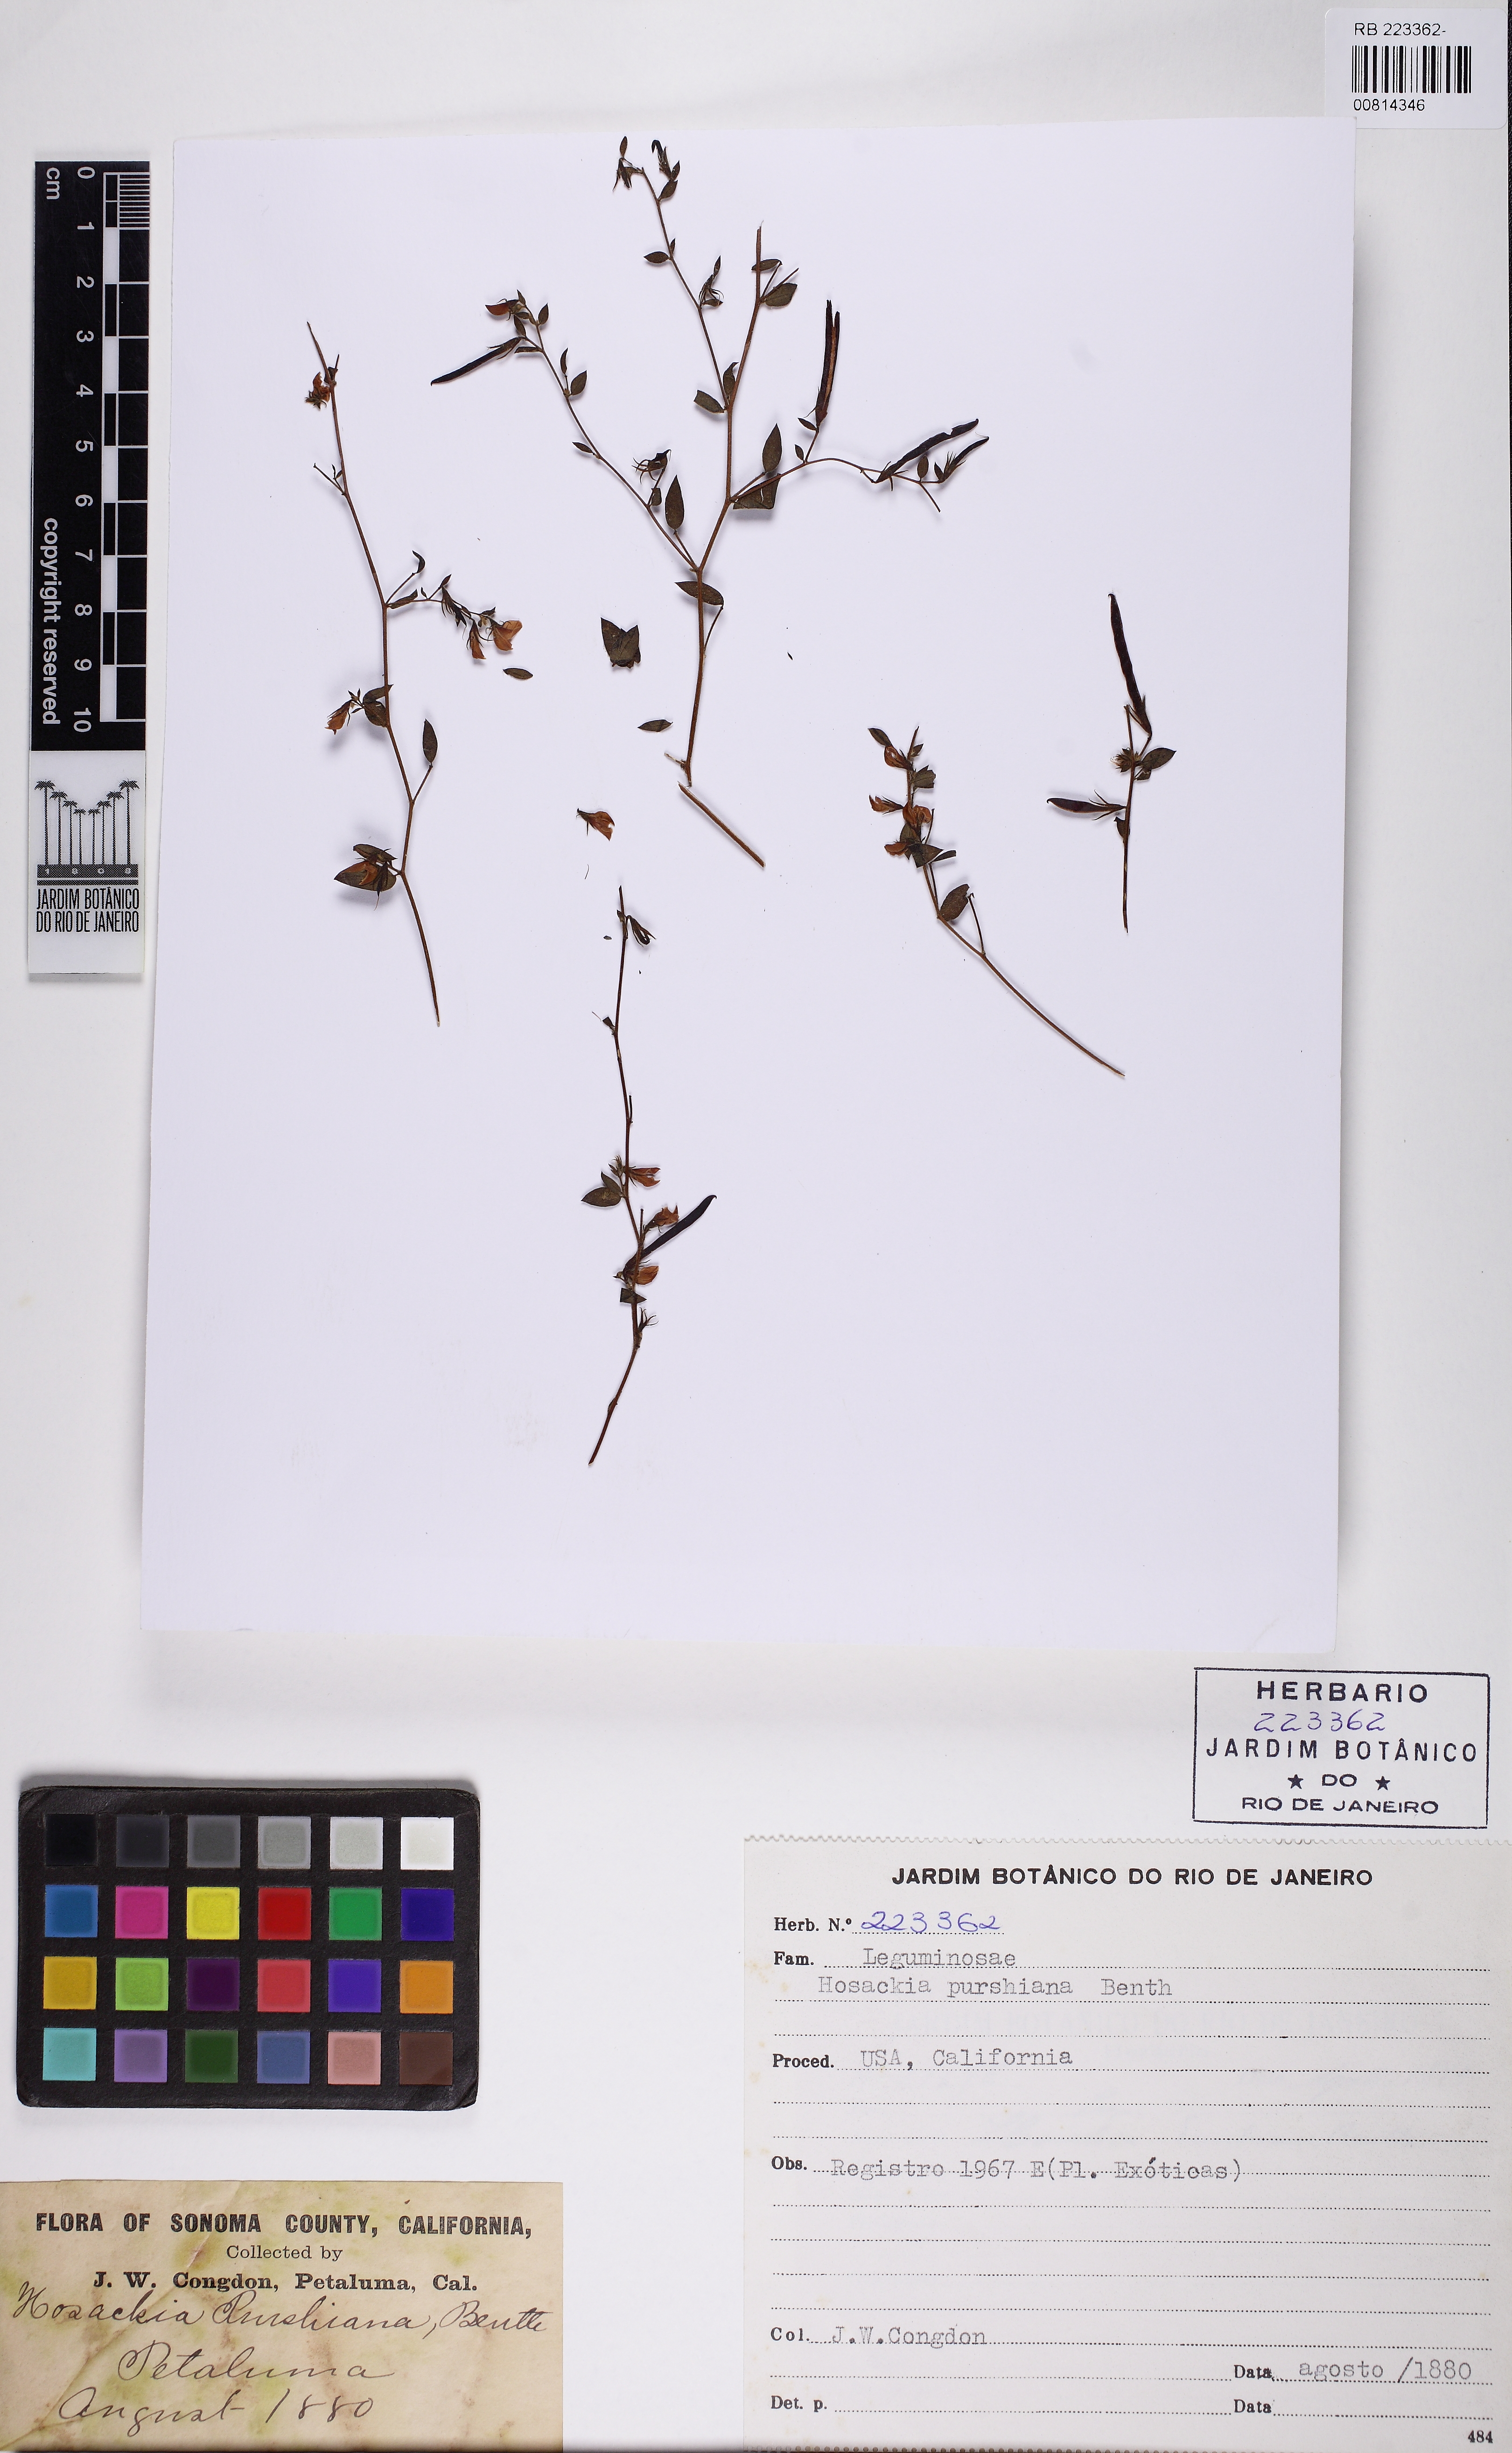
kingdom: Plantae
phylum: Tracheophyta
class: Magnoliopsida
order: Fabales
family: Fabaceae
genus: Acmispon
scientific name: Acmispon americanus
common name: American bird's-foot trefoil
